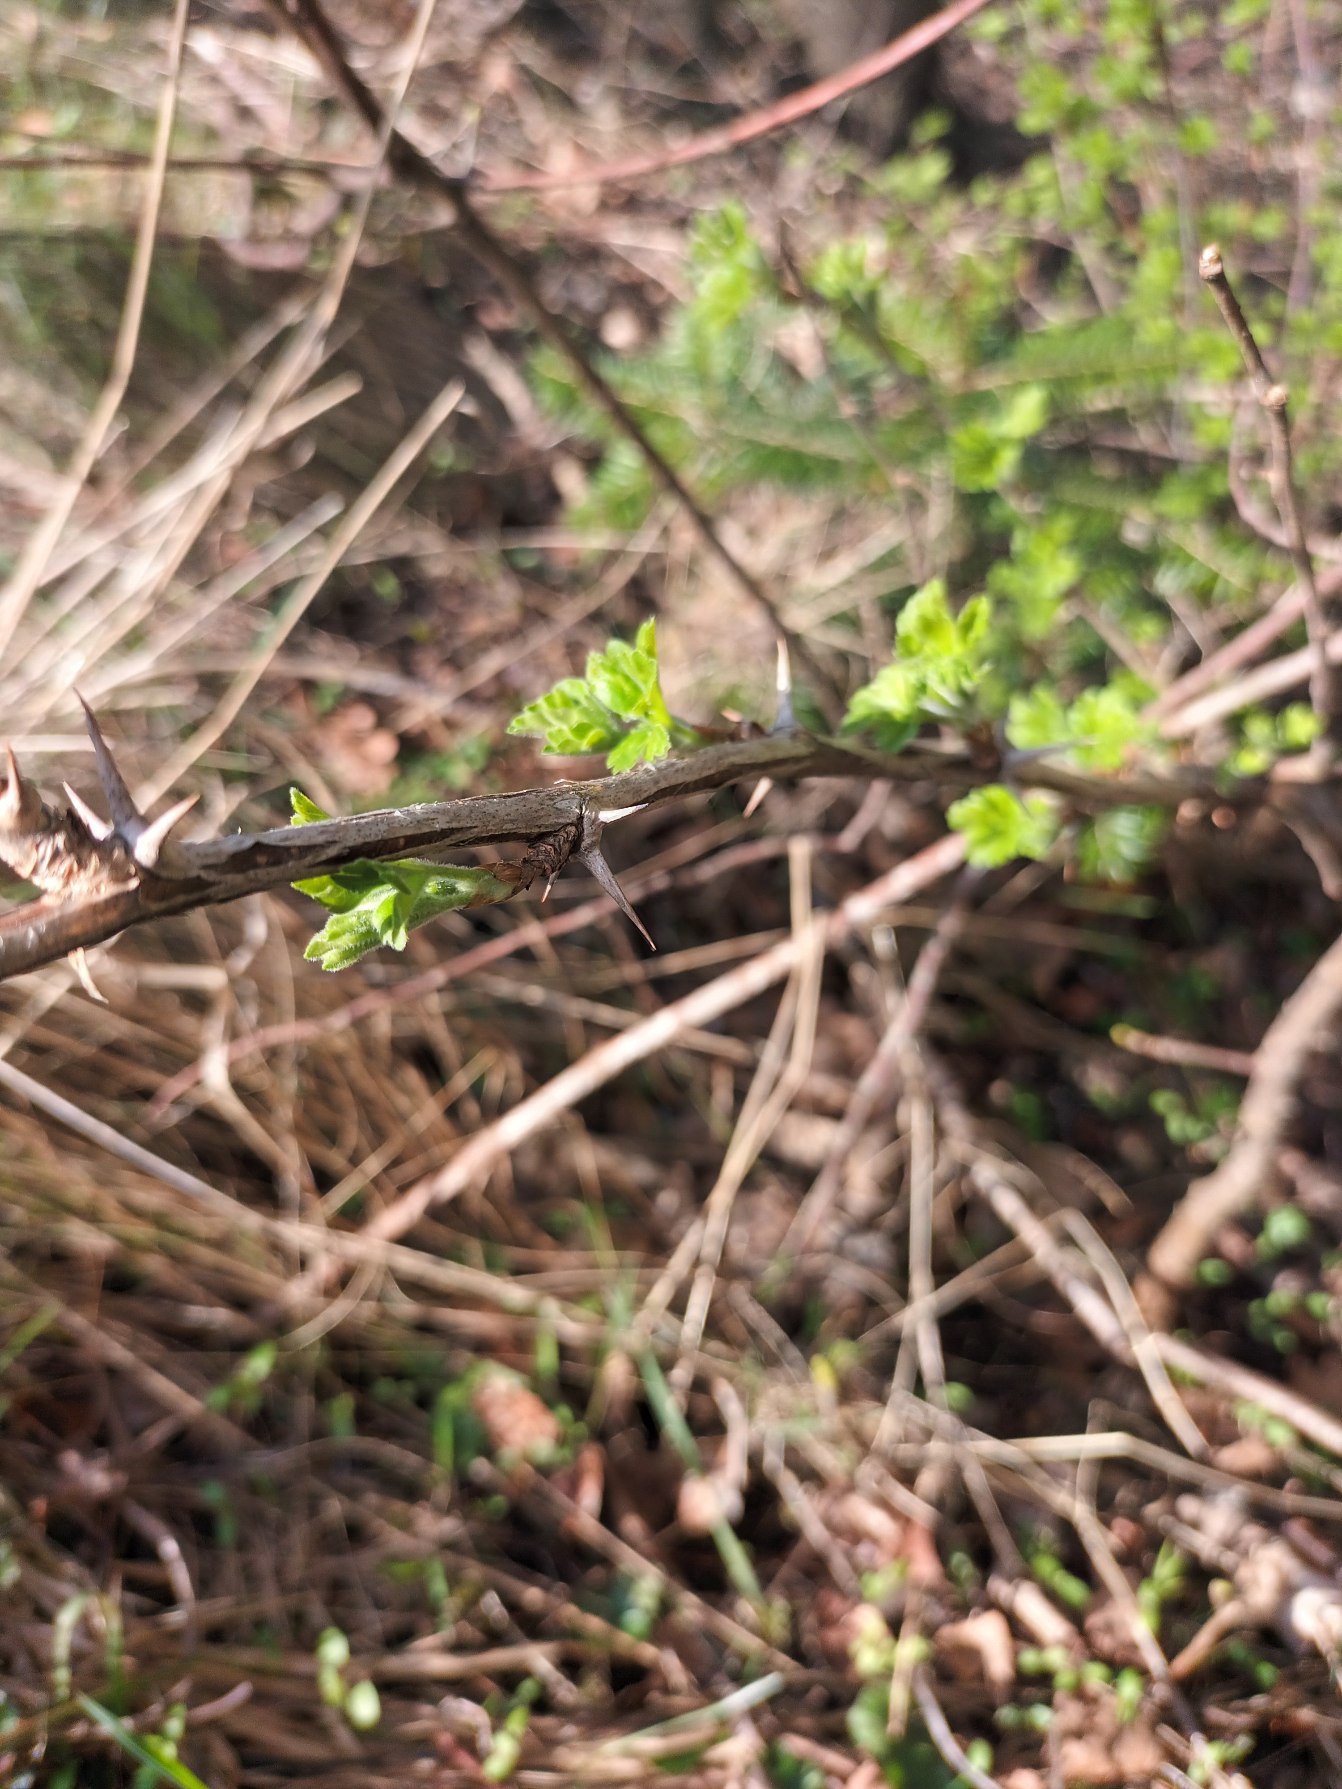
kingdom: Plantae
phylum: Tracheophyta
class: Magnoliopsida
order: Saxifragales
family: Grossulariaceae
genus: Ribes
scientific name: Ribes uva-crispa
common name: Stikkelsbær
